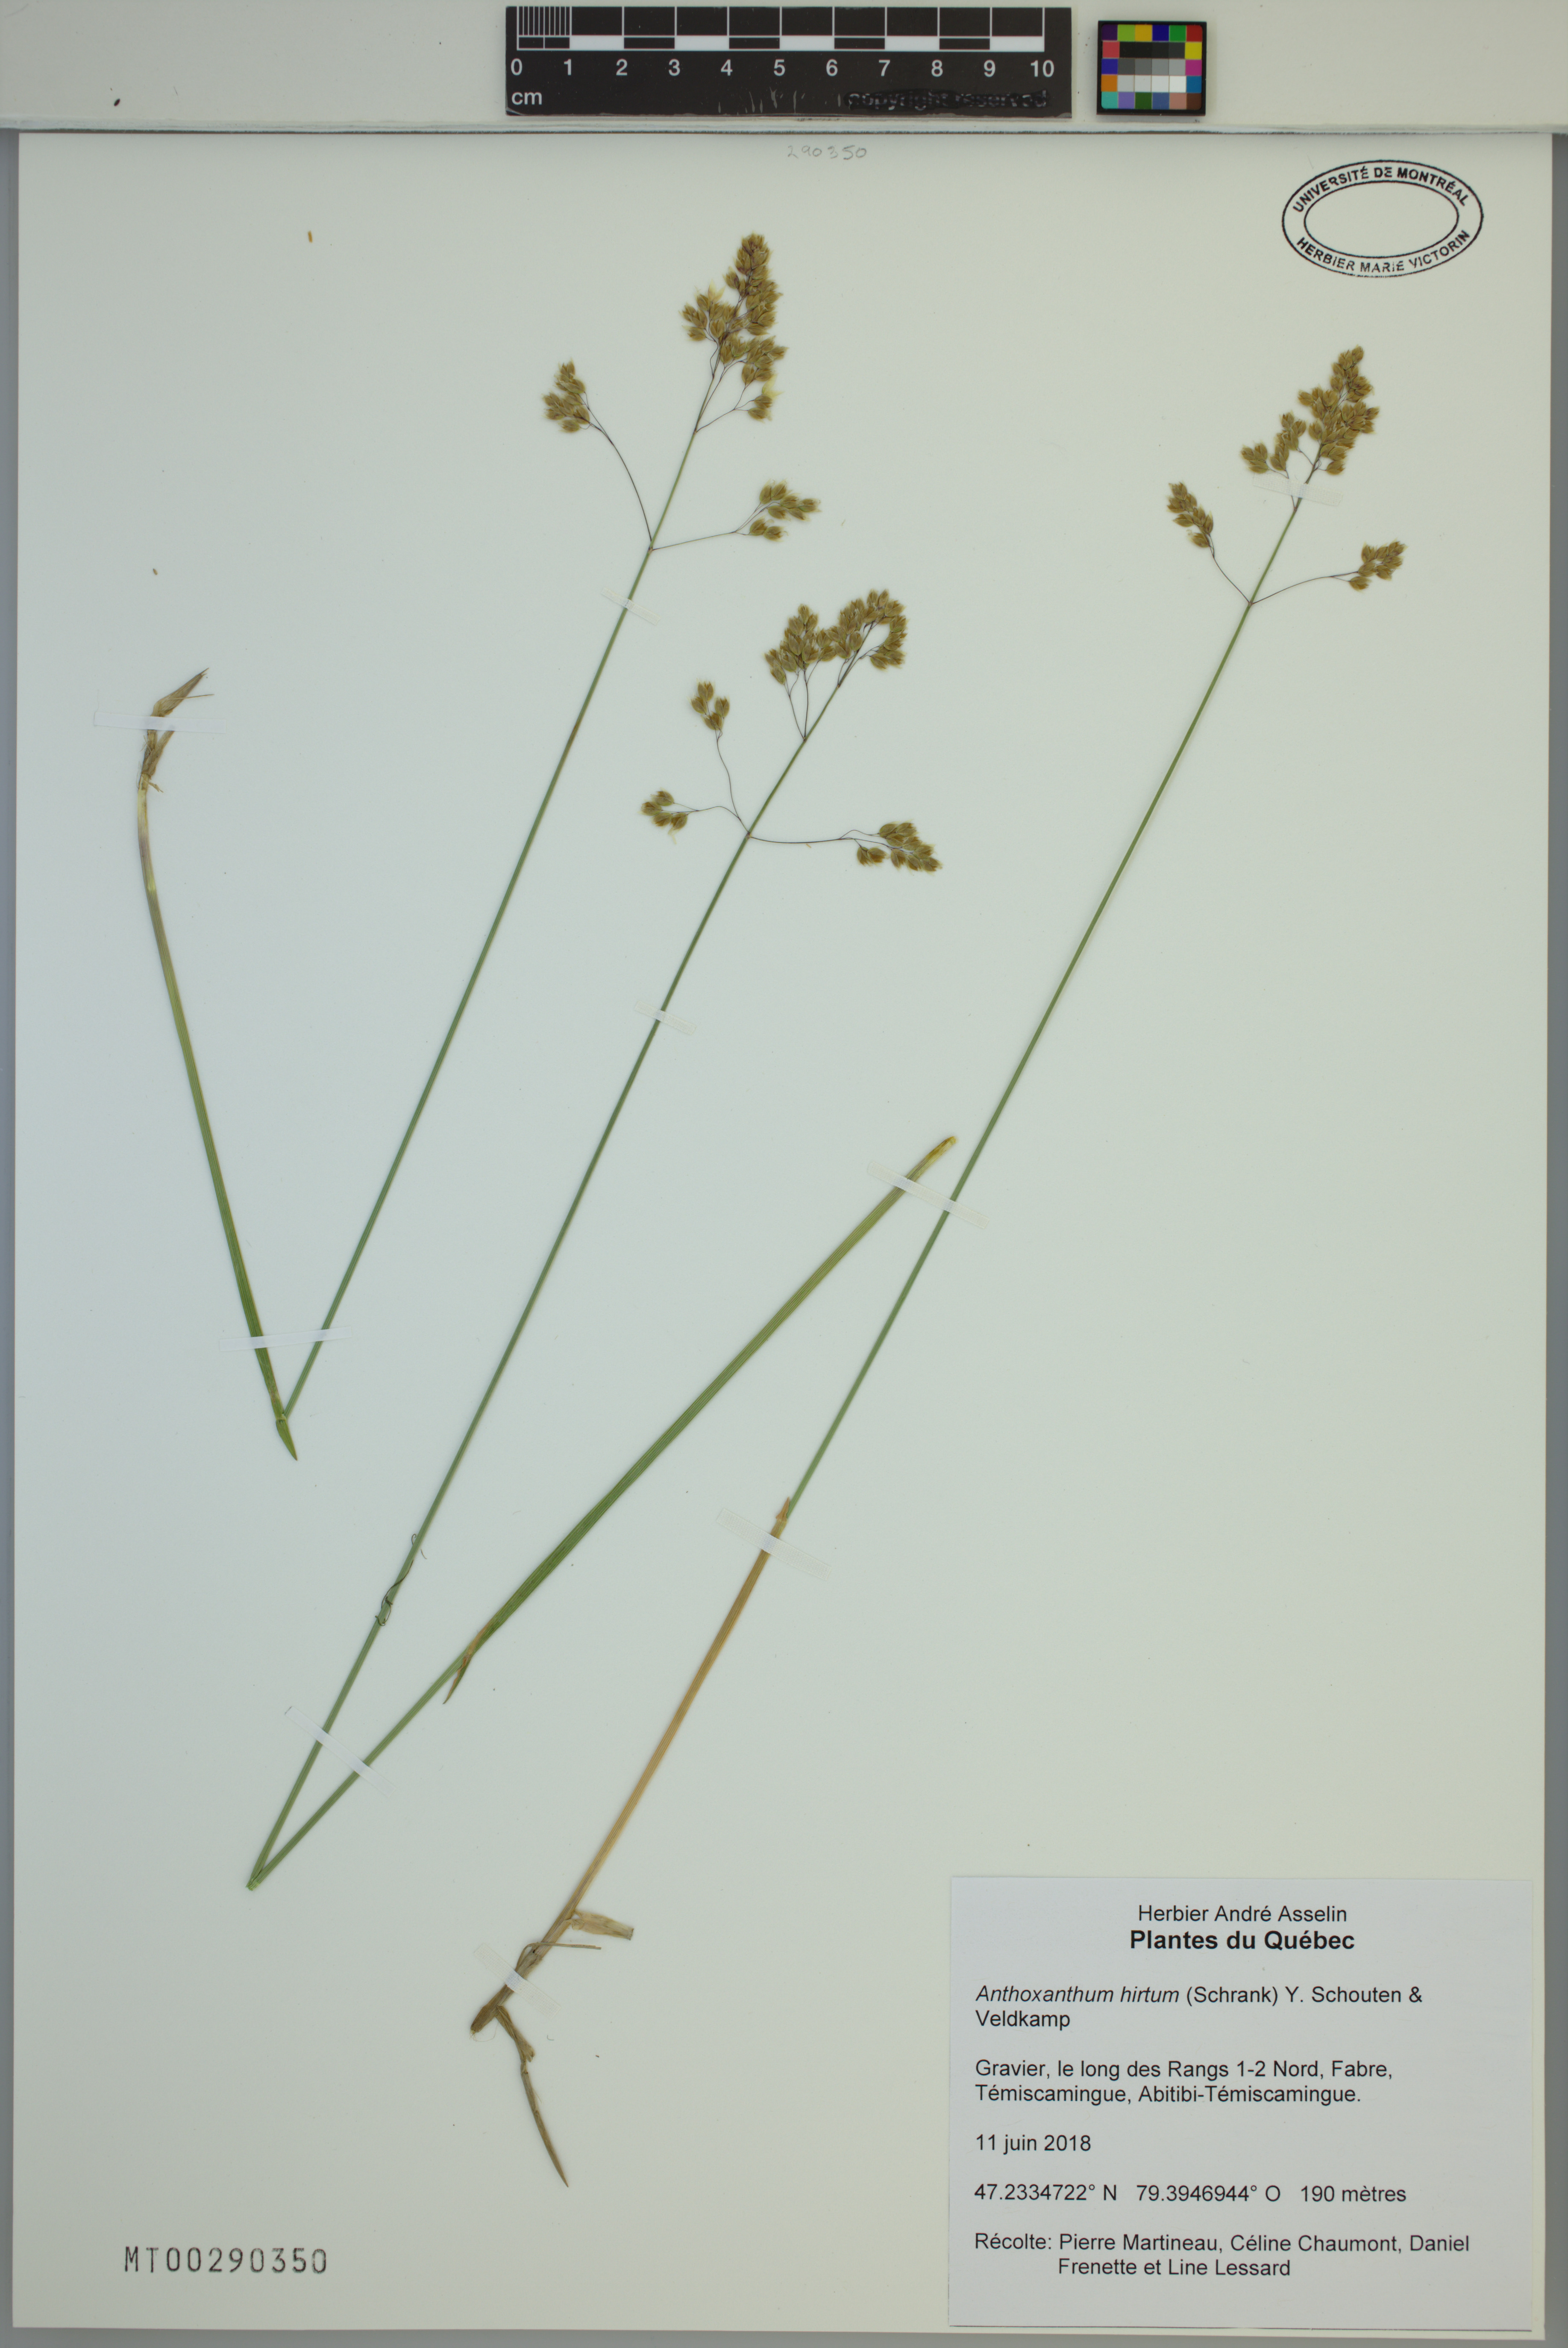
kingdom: Plantae
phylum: Tracheophyta
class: Liliopsida
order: Poales
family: Poaceae
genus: Anthoxanthum
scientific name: Anthoxanthum nitens
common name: Holy grass
